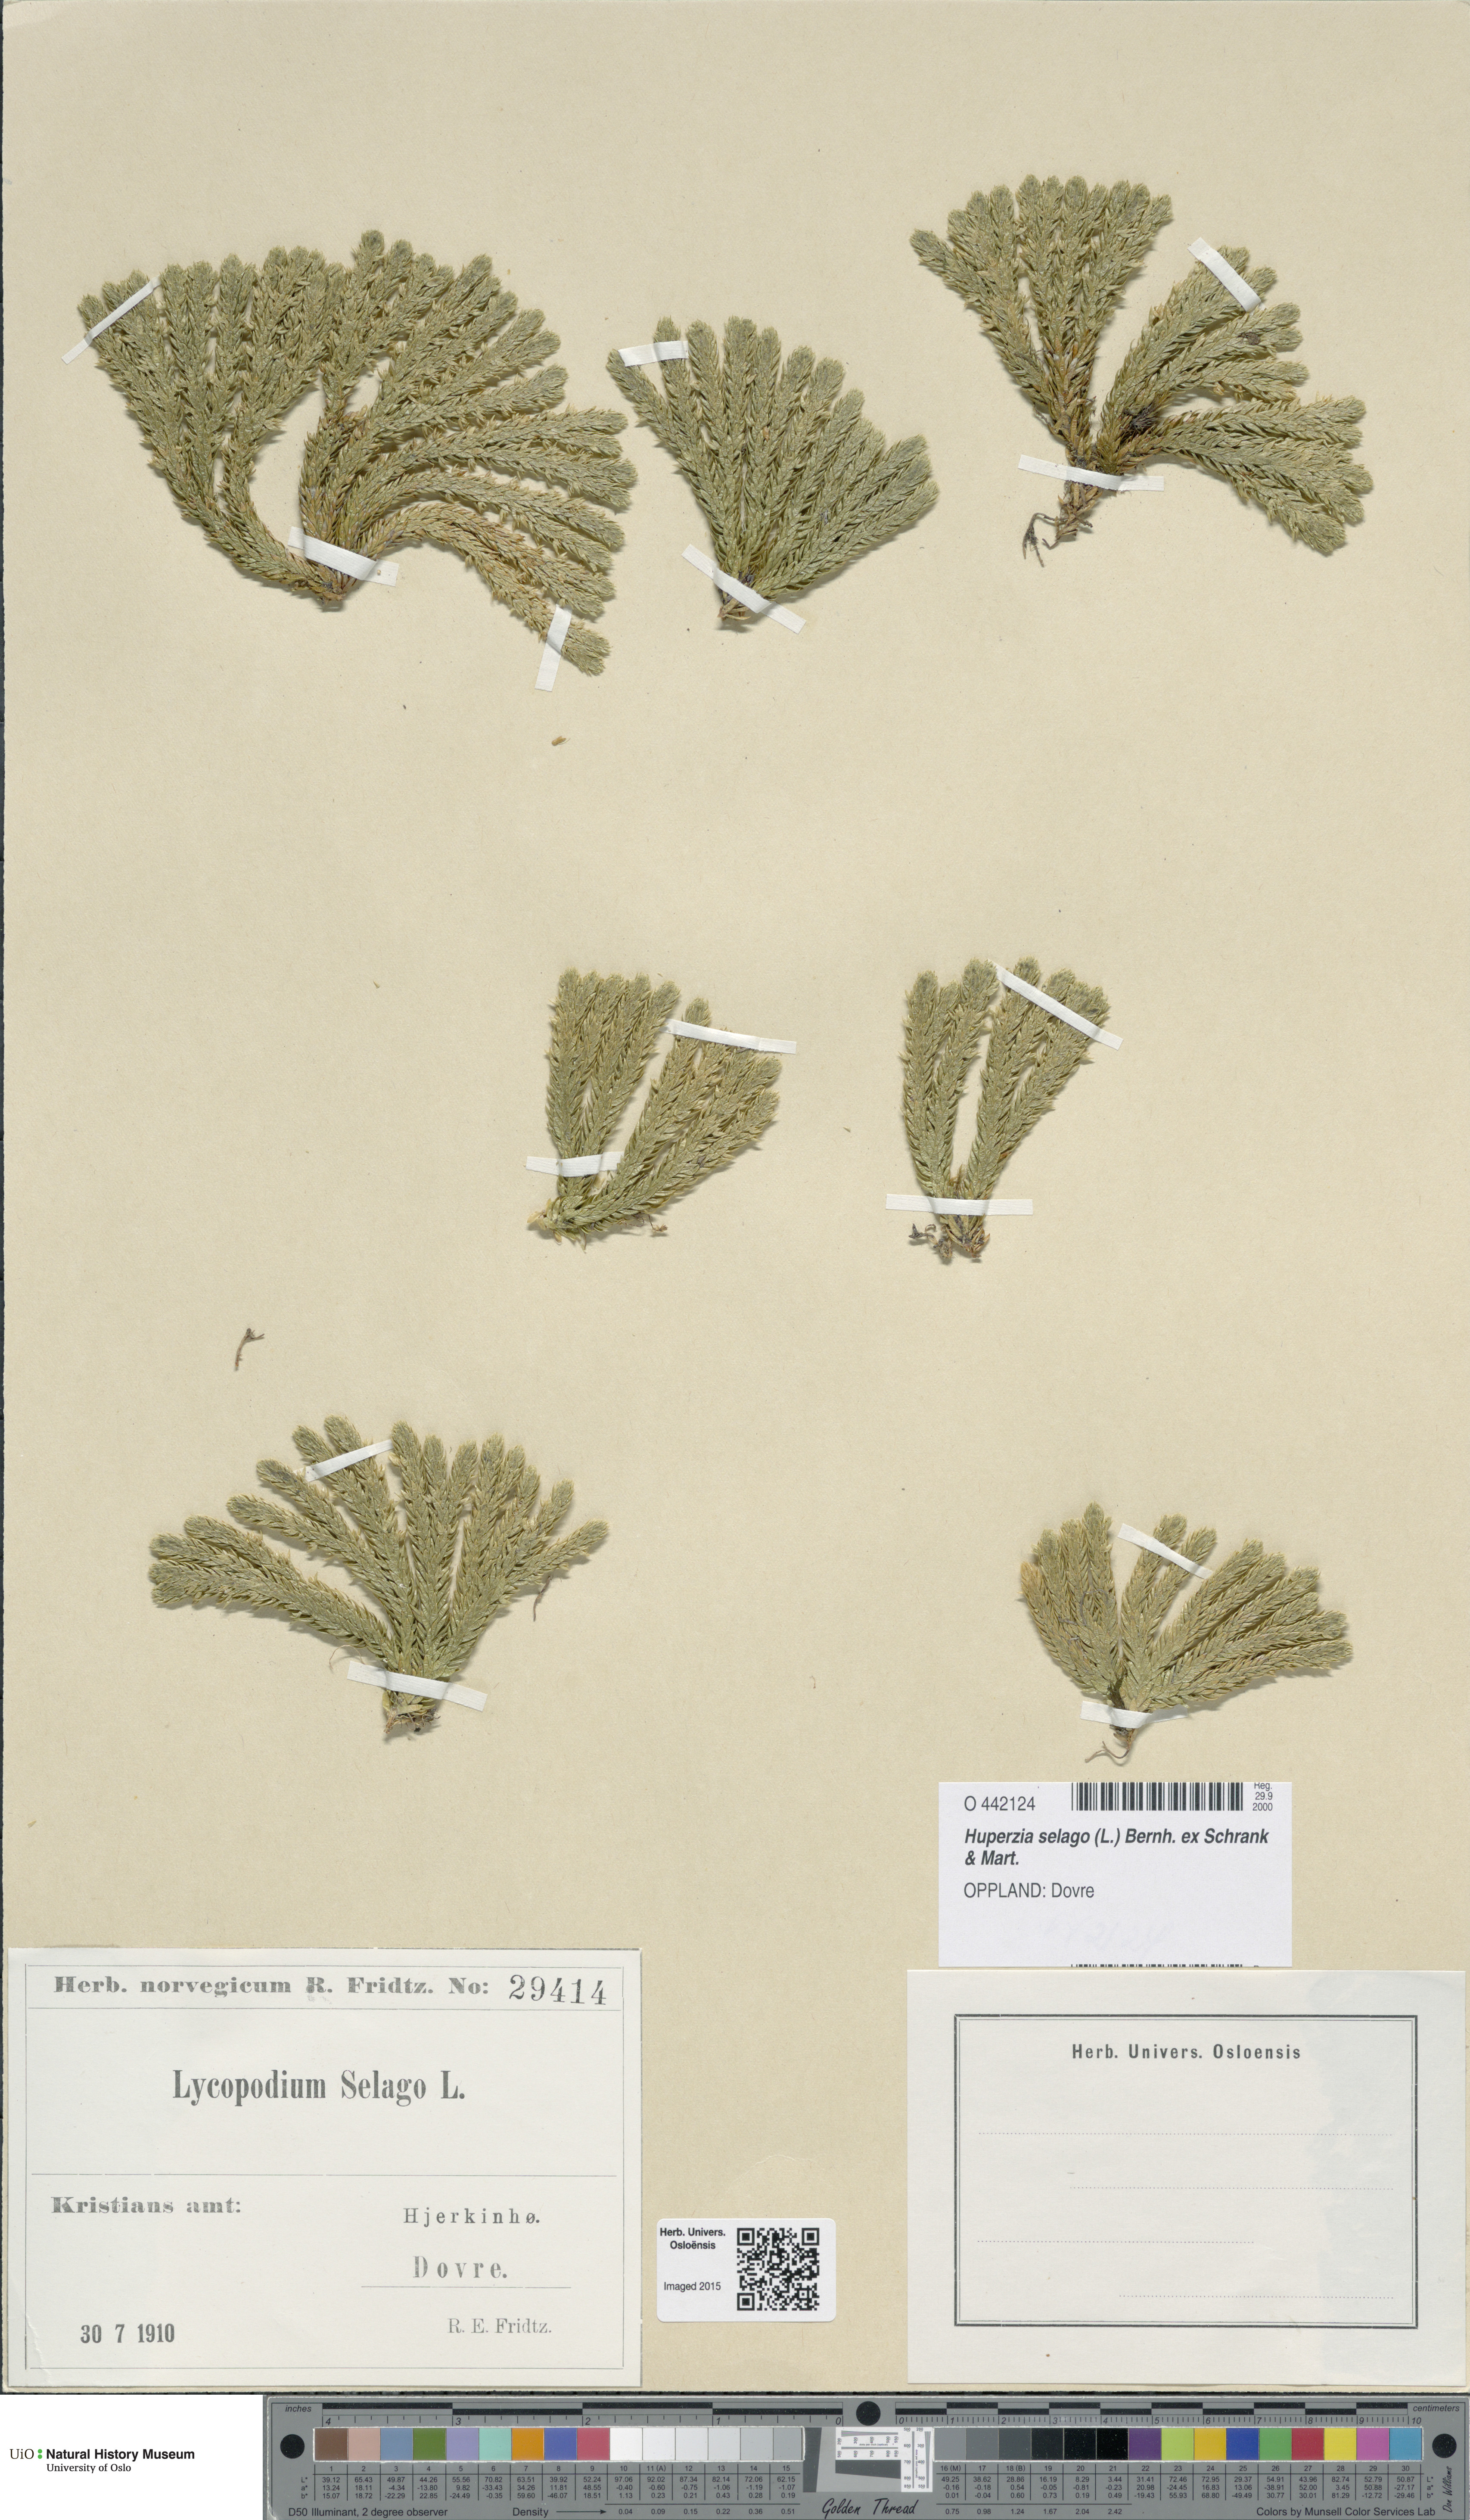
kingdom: Plantae
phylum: Tracheophyta
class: Lycopodiopsida
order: Lycopodiales
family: Lycopodiaceae
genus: Huperzia
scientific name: Huperzia selago
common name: Northern firmoss
